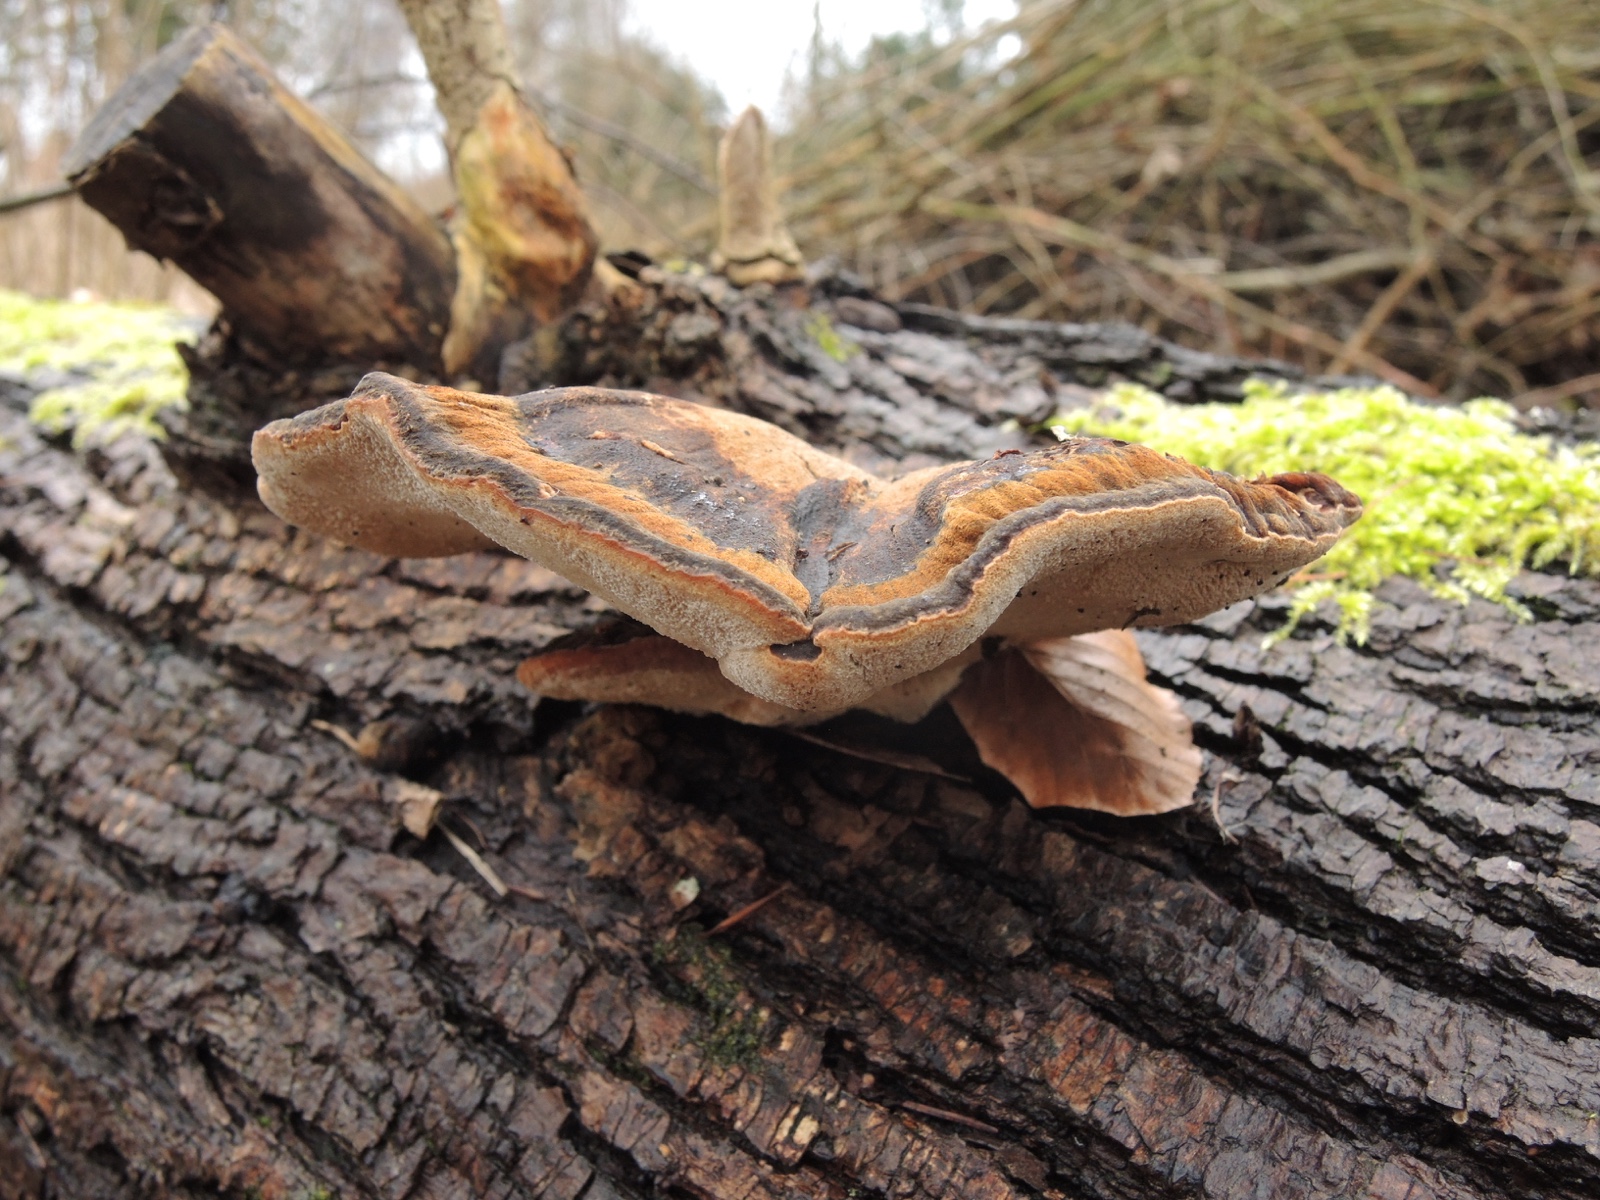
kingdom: Fungi
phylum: Basidiomycota
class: Agaricomycetes
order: Polyporales
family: Ischnodermataceae
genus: Ischnoderma
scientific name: Ischnoderma resinosum
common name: løv-tjæreporesvamp
